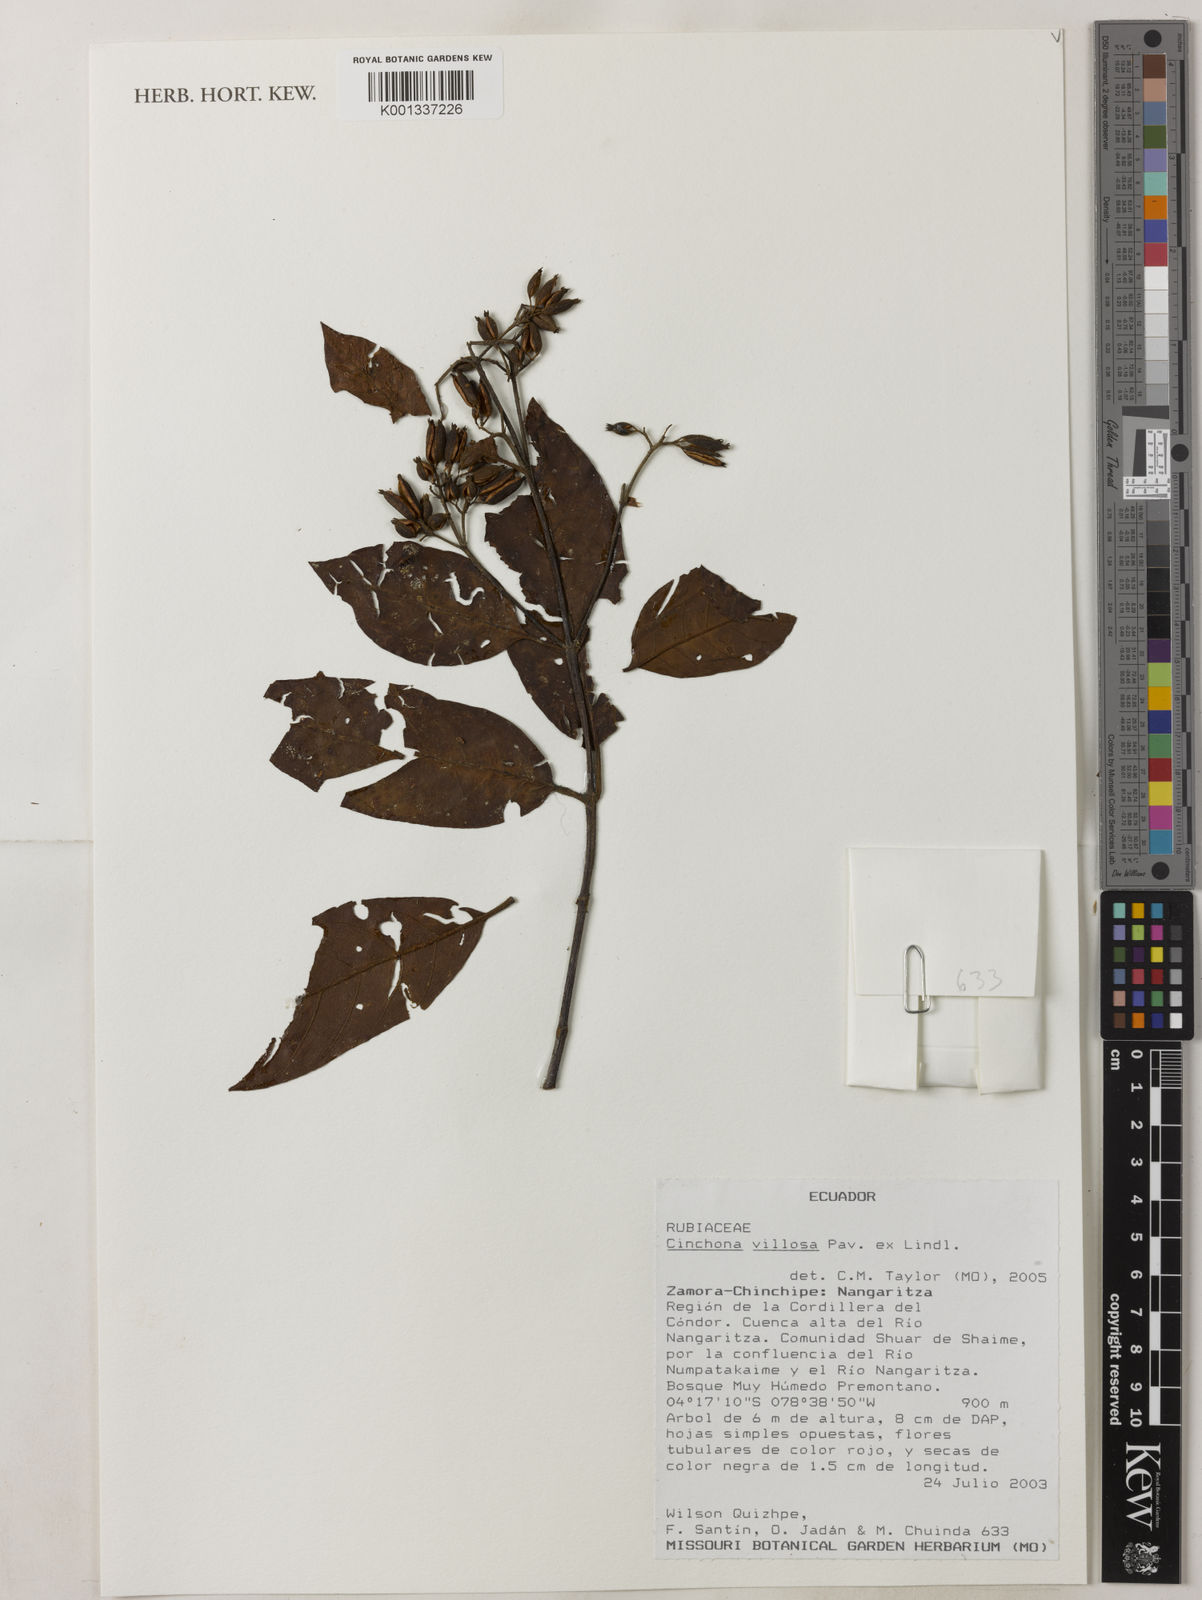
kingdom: Plantae
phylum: Tracheophyta
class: Magnoliopsida
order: Gentianales
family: Rubiaceae
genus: Cinchona
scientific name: Cinchona villosa
